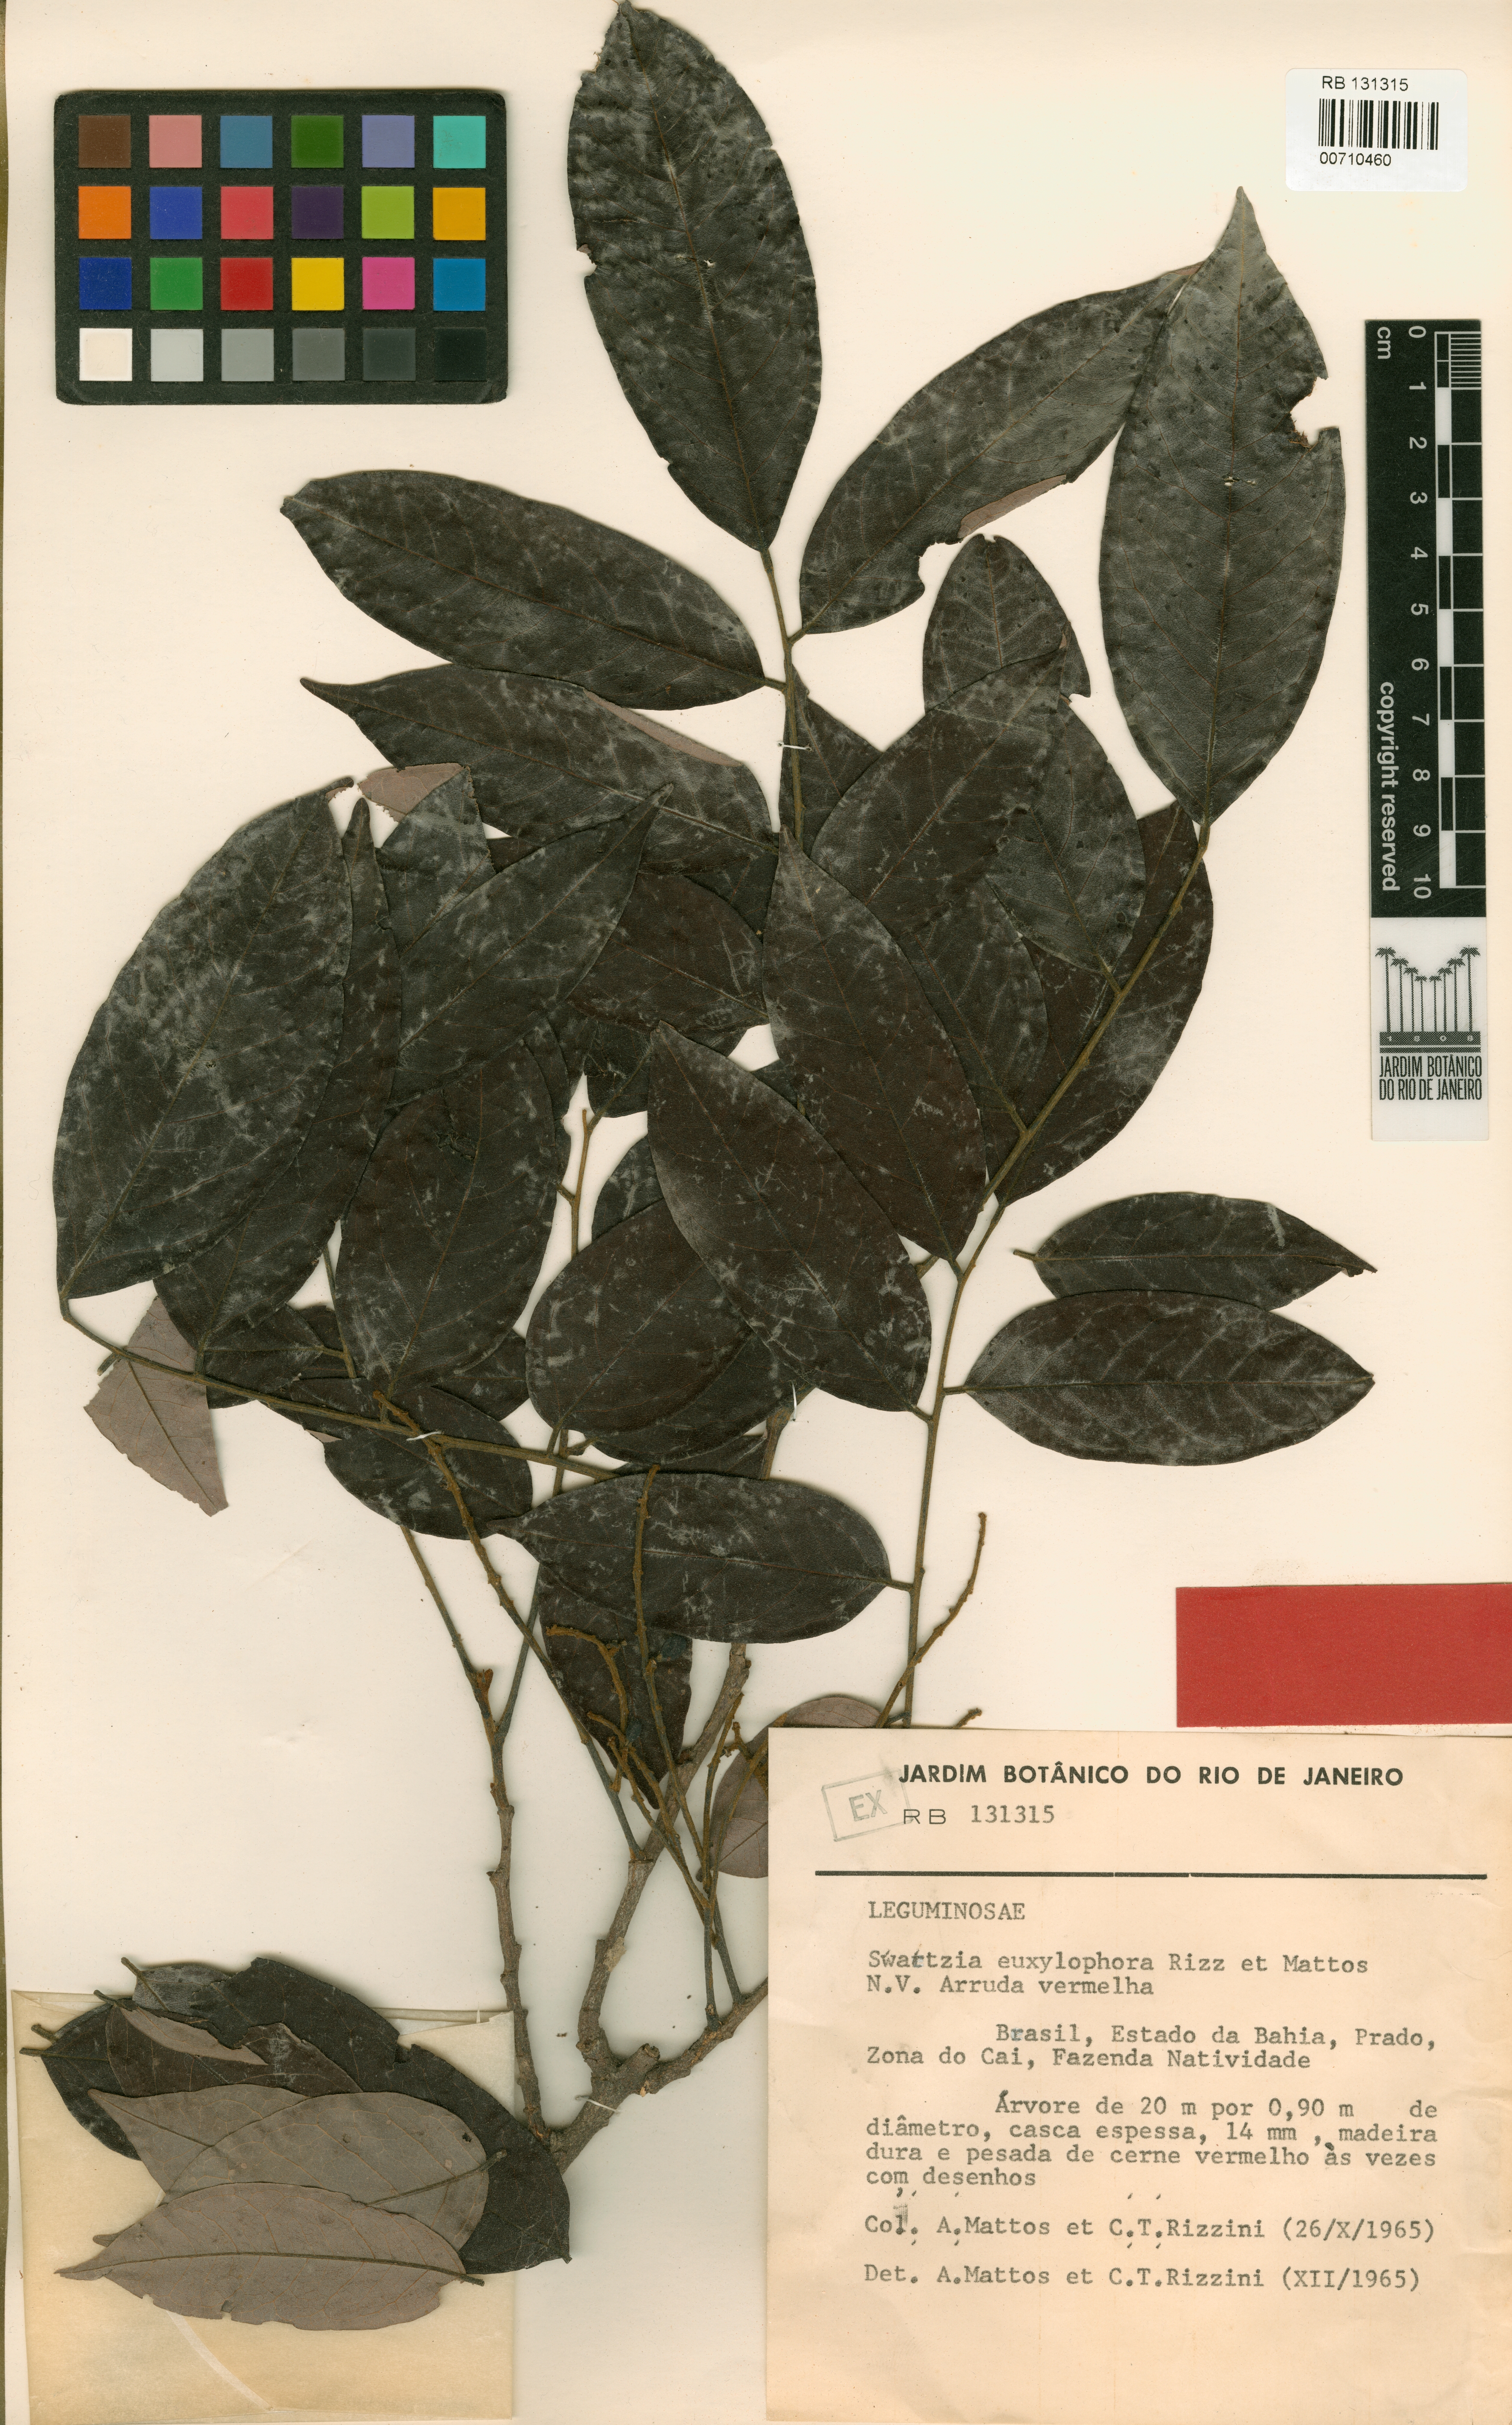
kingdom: Plantae
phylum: Tracheophyta
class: Magnoliopsida
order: Fabales
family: Fabaceae
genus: Swartzia
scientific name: Swartzia euxylophora
